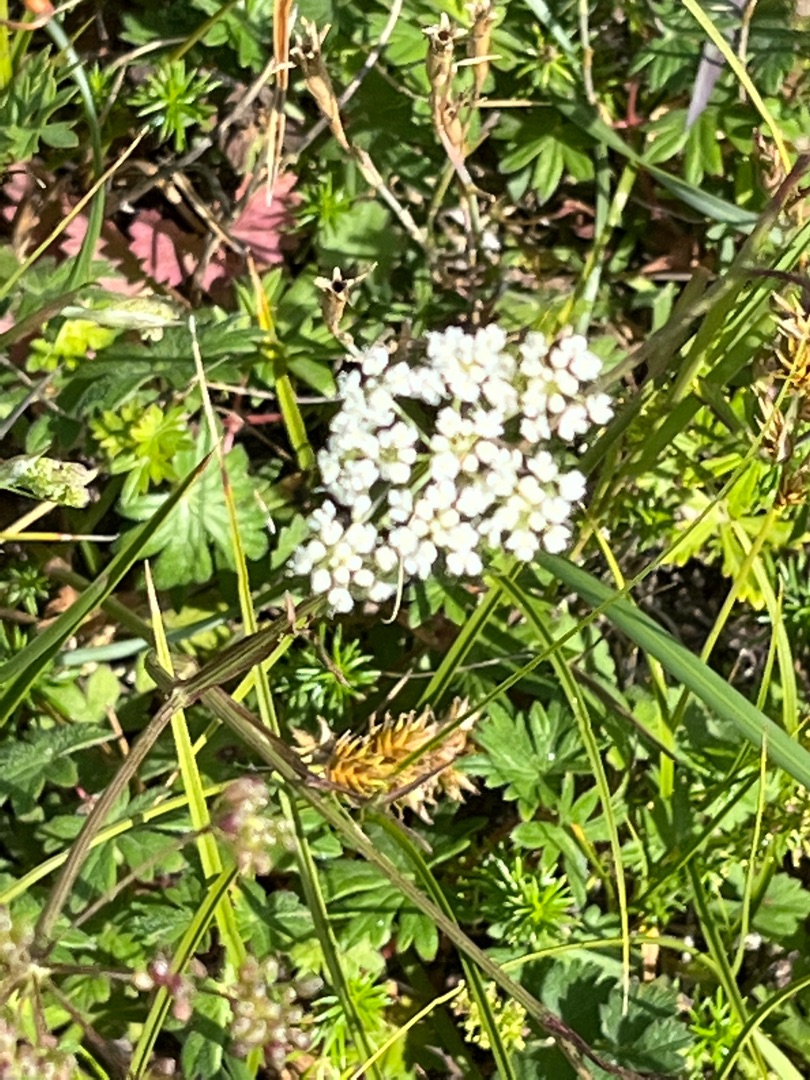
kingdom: Plantae
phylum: Tracheophyta
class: Magnoliopsida
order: Asterales
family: Asteraceae
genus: Achillea
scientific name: Achillea millefolium
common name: Almindelig røllike
